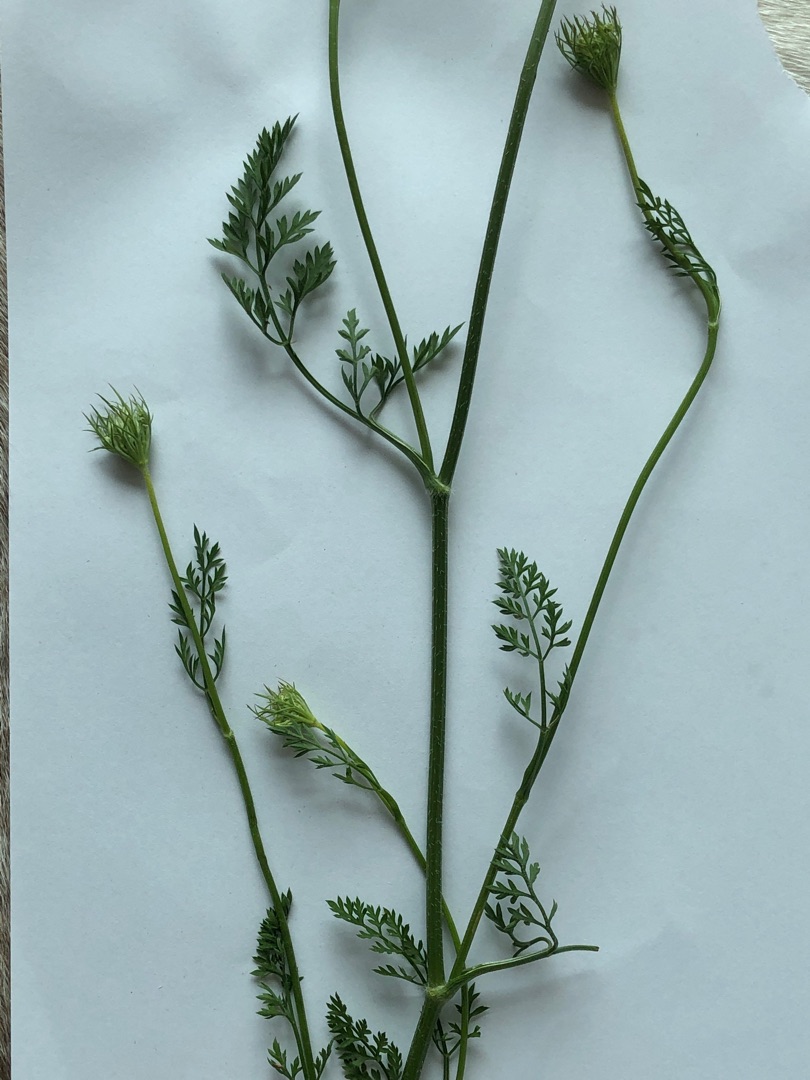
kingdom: Plantae
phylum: Tracheophyta
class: Magnoliopsida
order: Apiales
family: Apiaceae
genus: Daucus
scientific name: Daucus carota
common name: Gulerod
